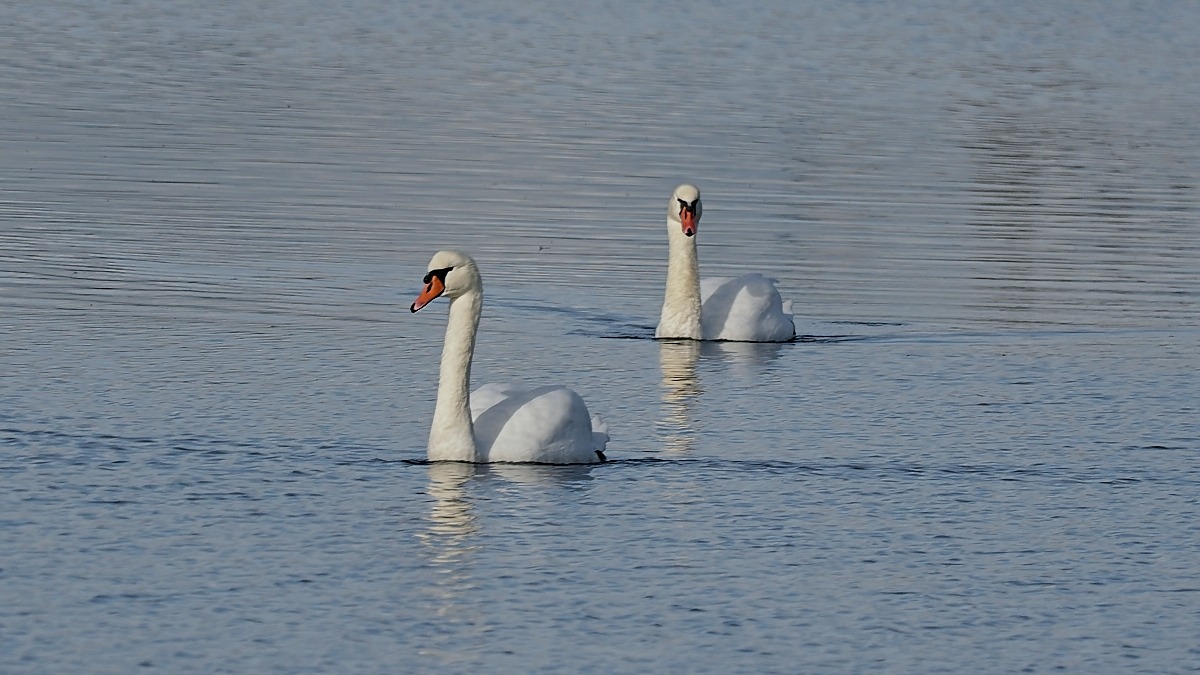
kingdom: Animalia
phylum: Chordata
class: Aves
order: Anseriformes
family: Anatidae
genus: Cygnus
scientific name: Cygnus olor
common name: Knopsvane
